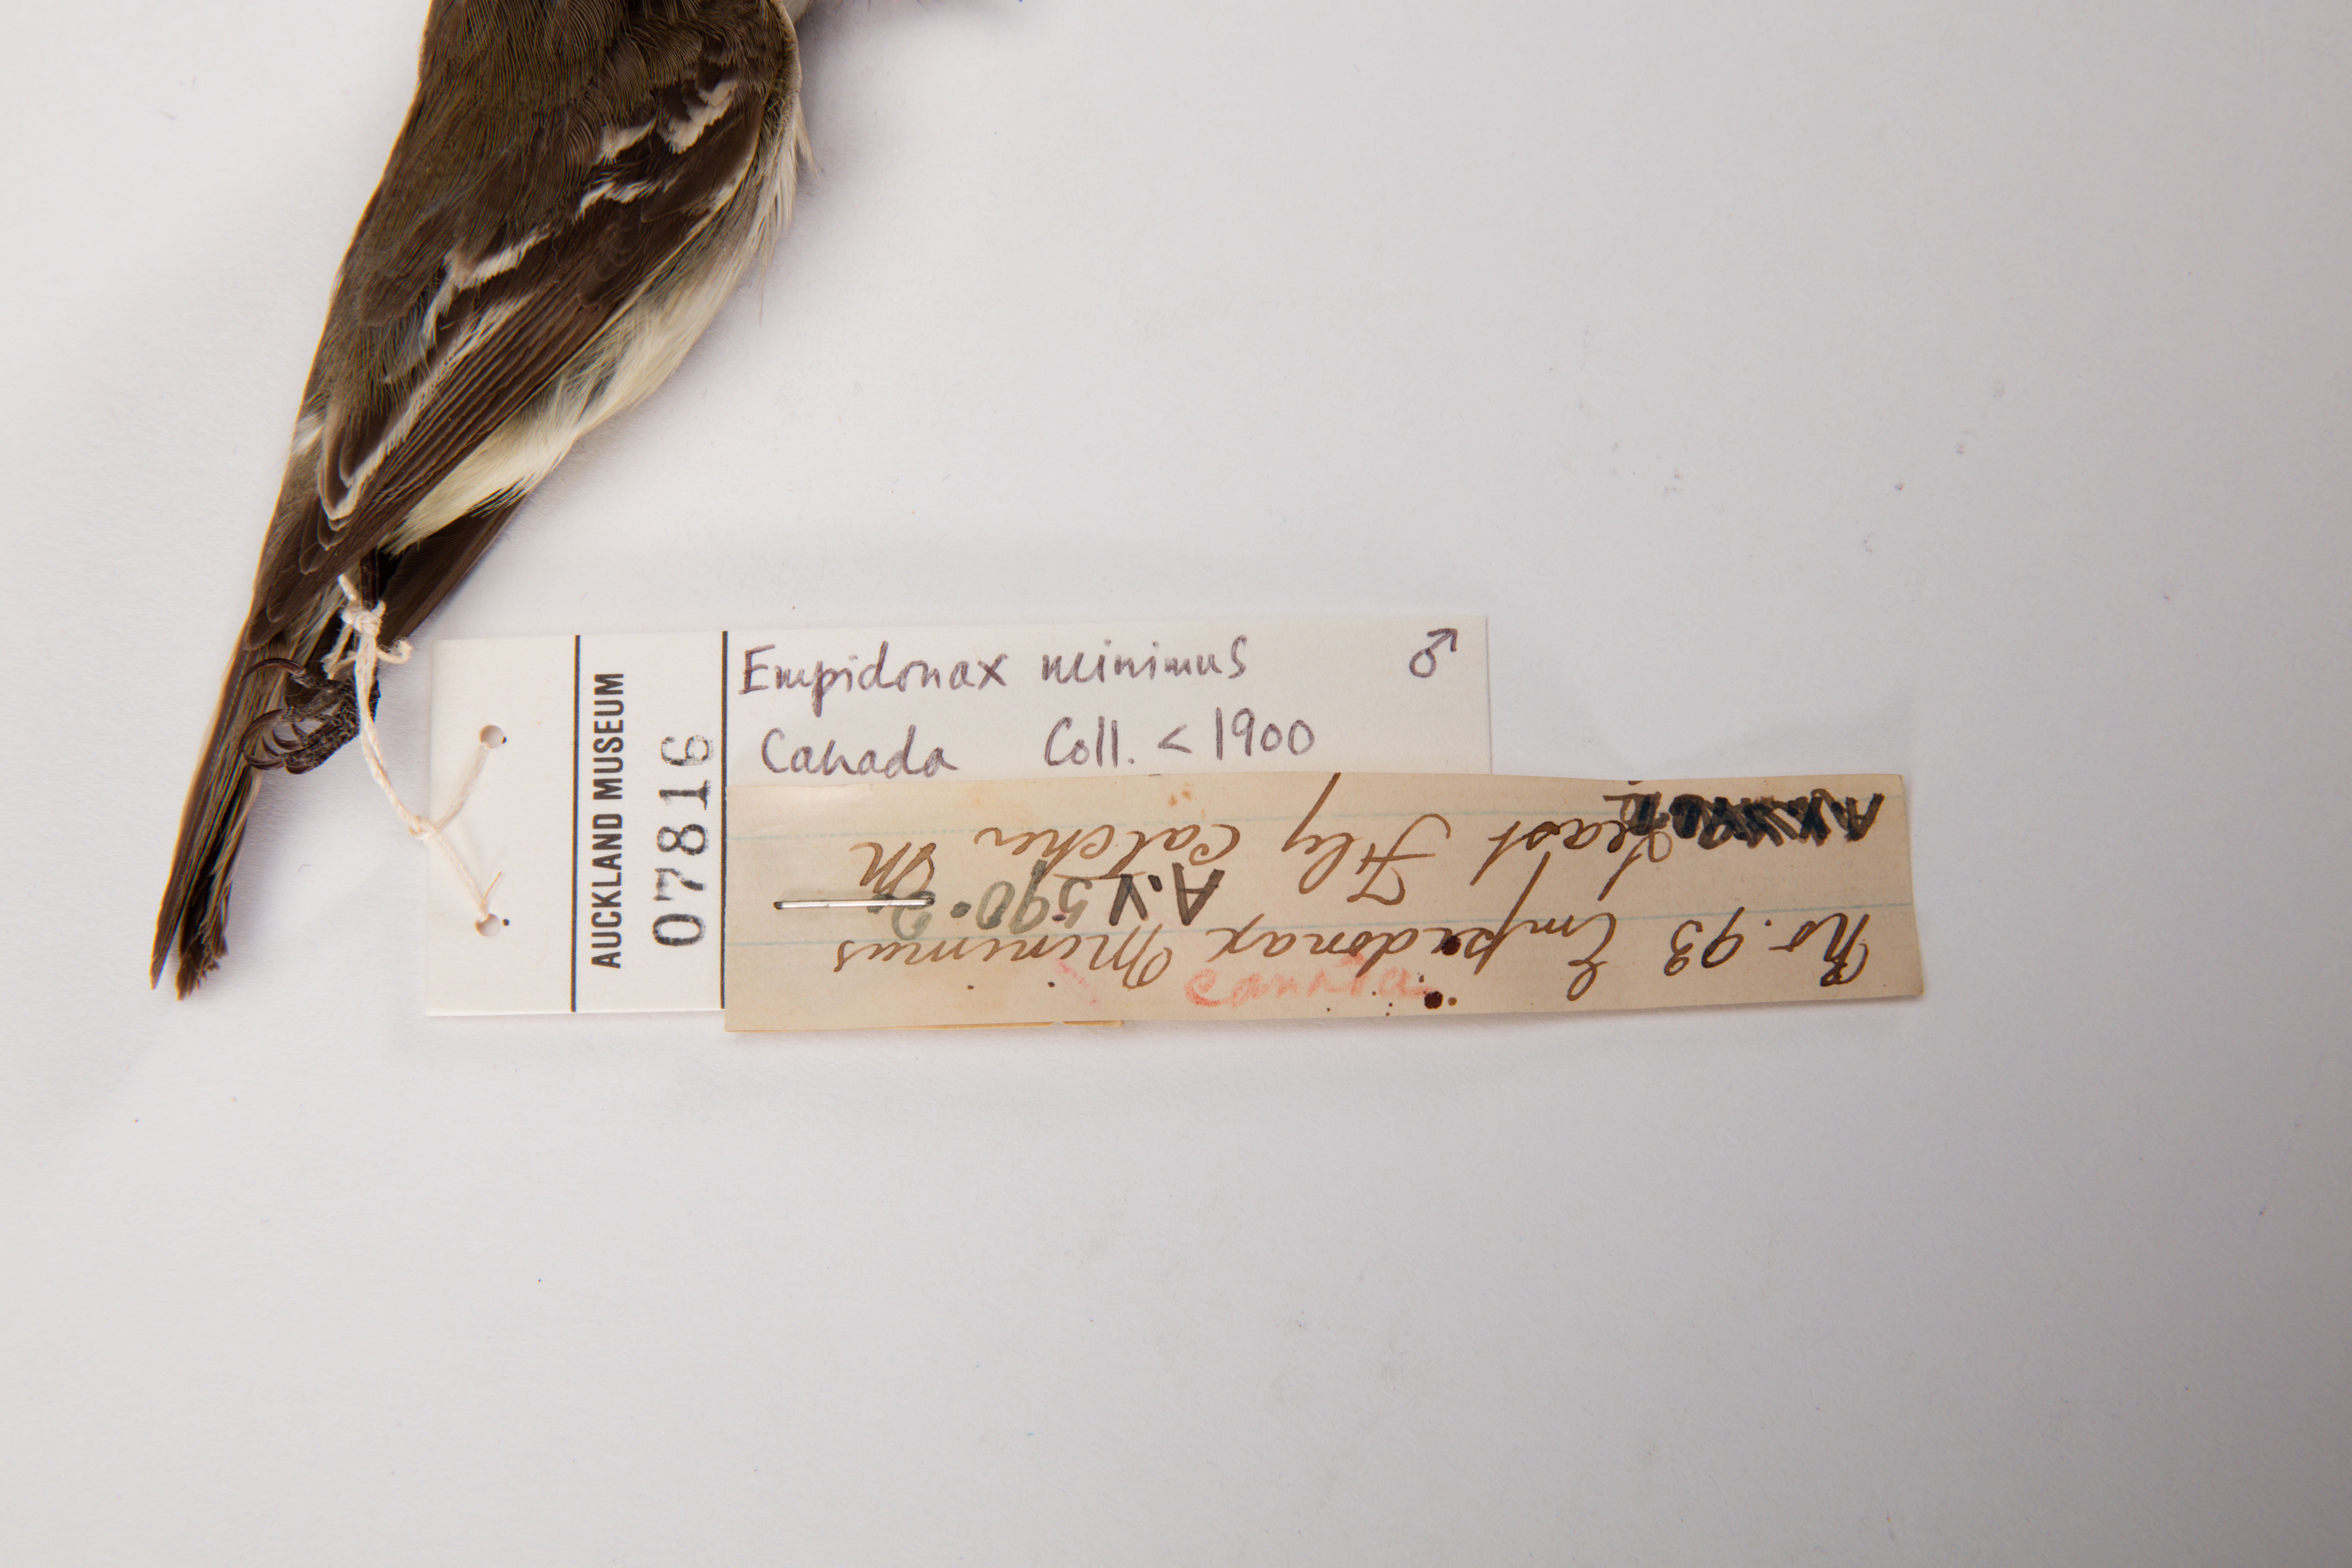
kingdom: Animalia
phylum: Chordata
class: Aves
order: Passeriformes
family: Tyrannidae
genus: Empidonax
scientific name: Empidonax minimus
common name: Least flycatcher
